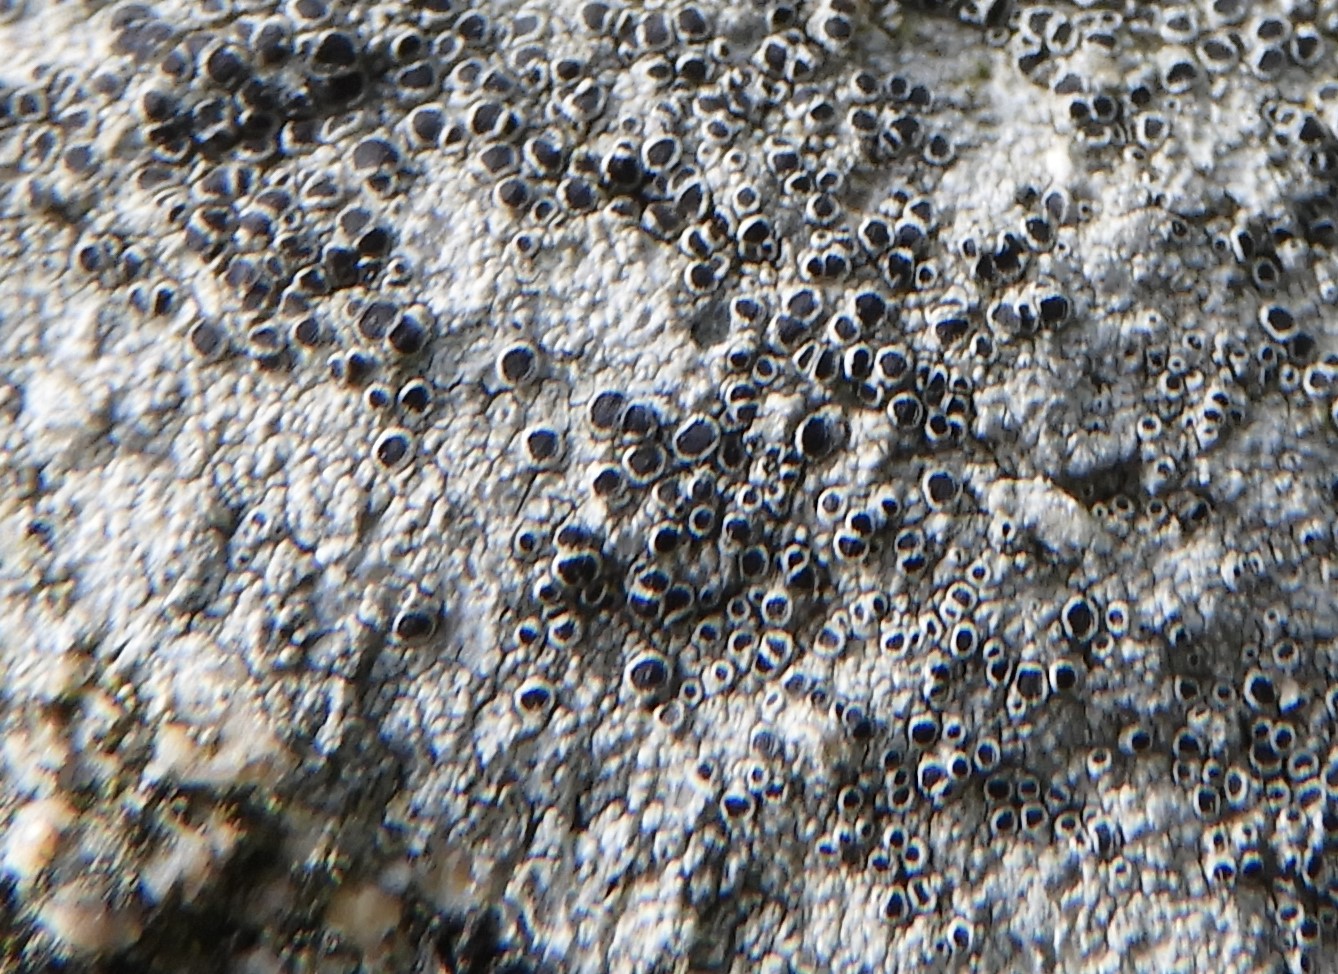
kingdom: Fungi
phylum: Ascomycota
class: Lecanoromycetes
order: Lecanorales
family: Tephromelataceae
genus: Tephromela
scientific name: Tephromela atra
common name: sortfrugtet kantskivelav
